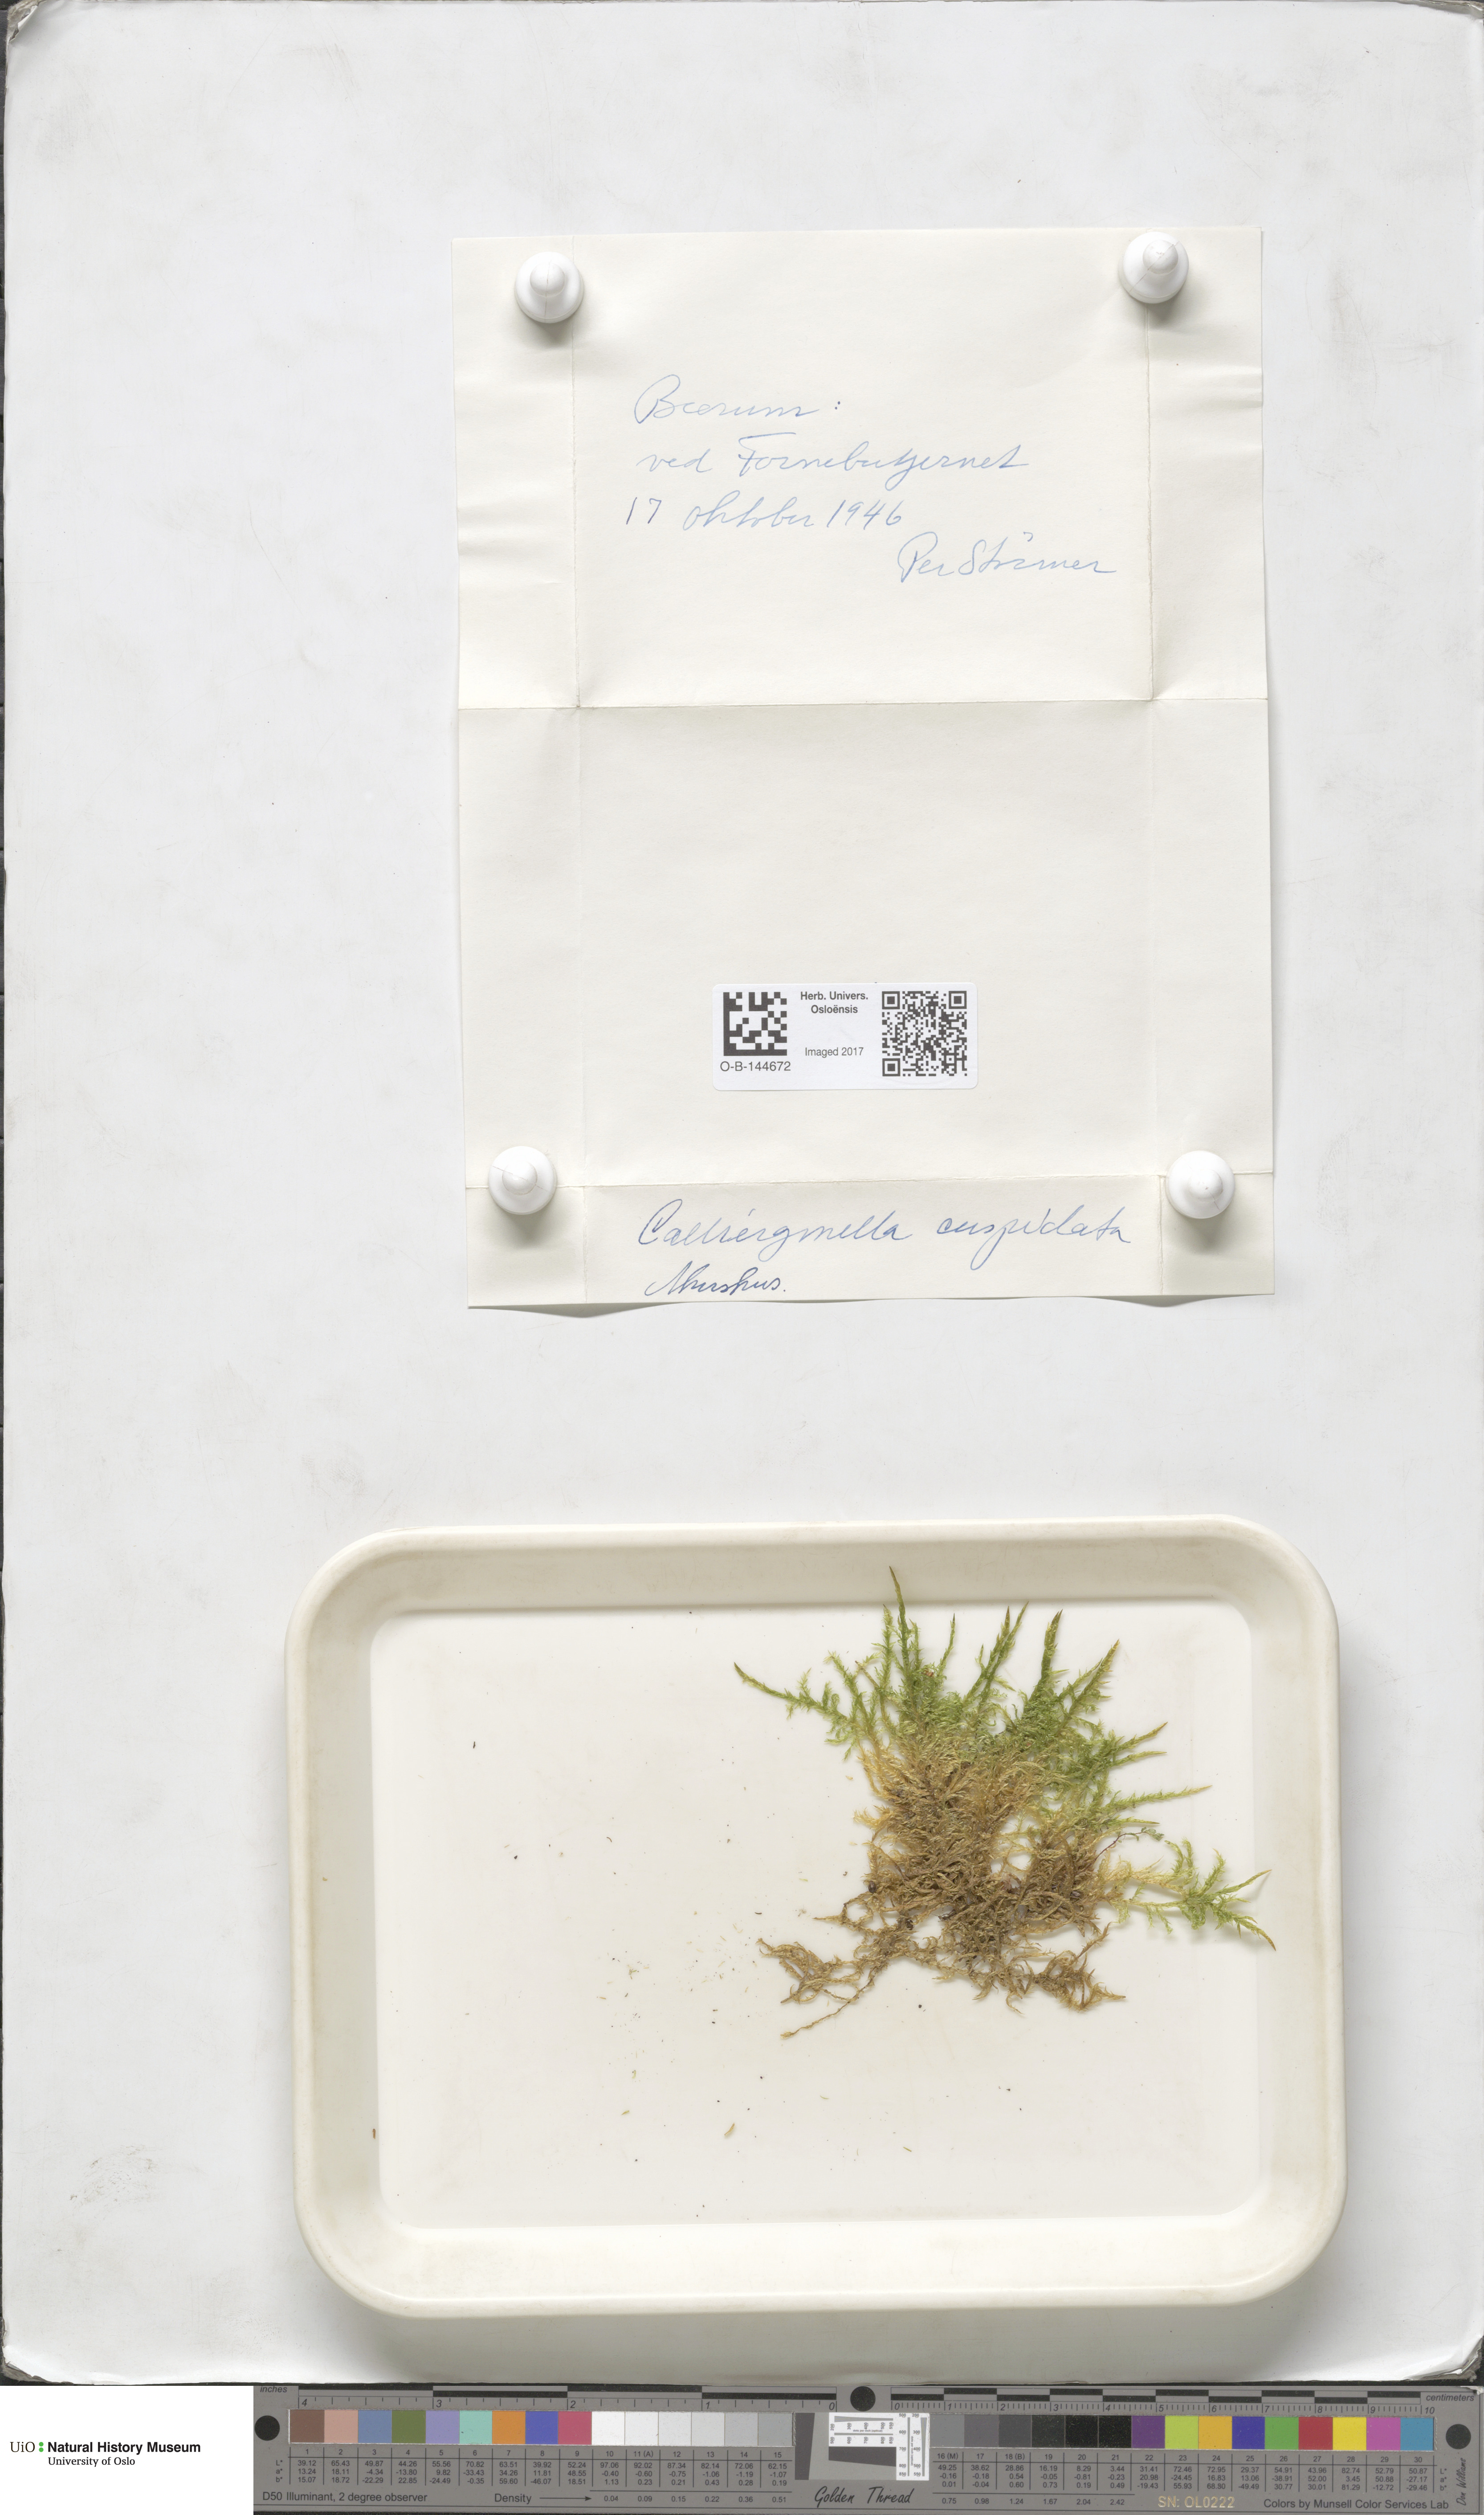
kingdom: Plantae
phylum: Bryophyta
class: Bryopsida
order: Hypnales
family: Pylaisiaceae
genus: Calliergonella
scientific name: Calliergonella cuspidata
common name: Common large wetland moss
